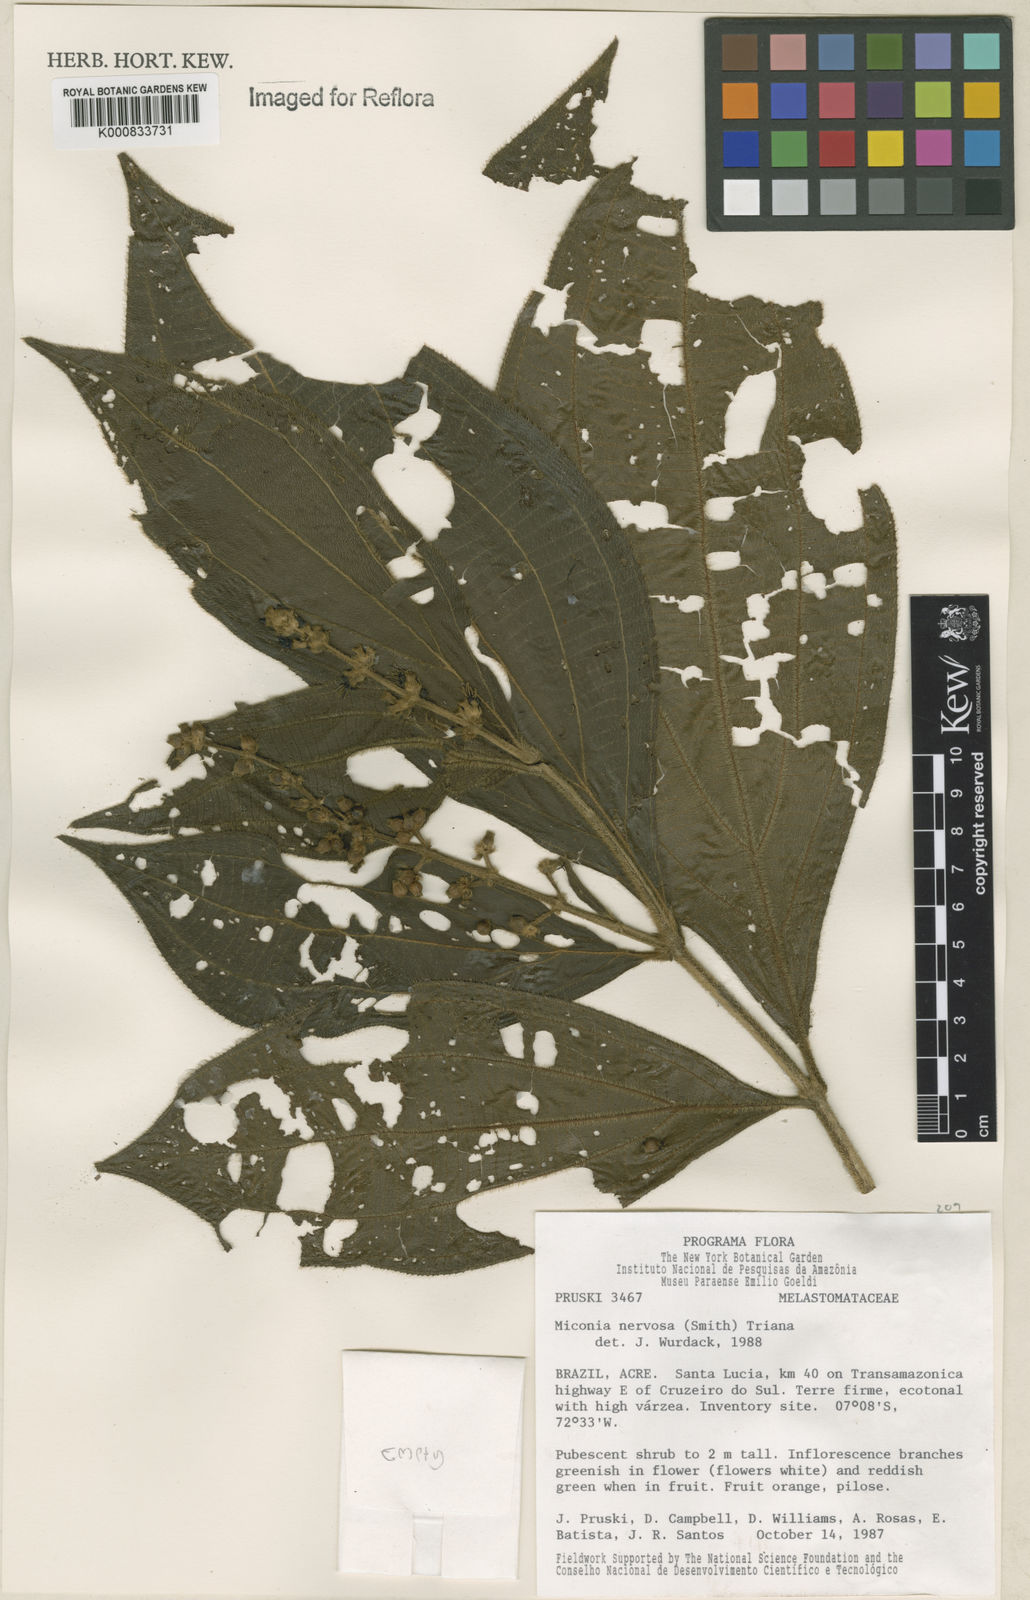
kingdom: Plantae
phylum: Tracheophyta
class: Magnoliopsida
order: Myrtales
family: Melastomataceae
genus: Miconia
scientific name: Miconia nervosa
